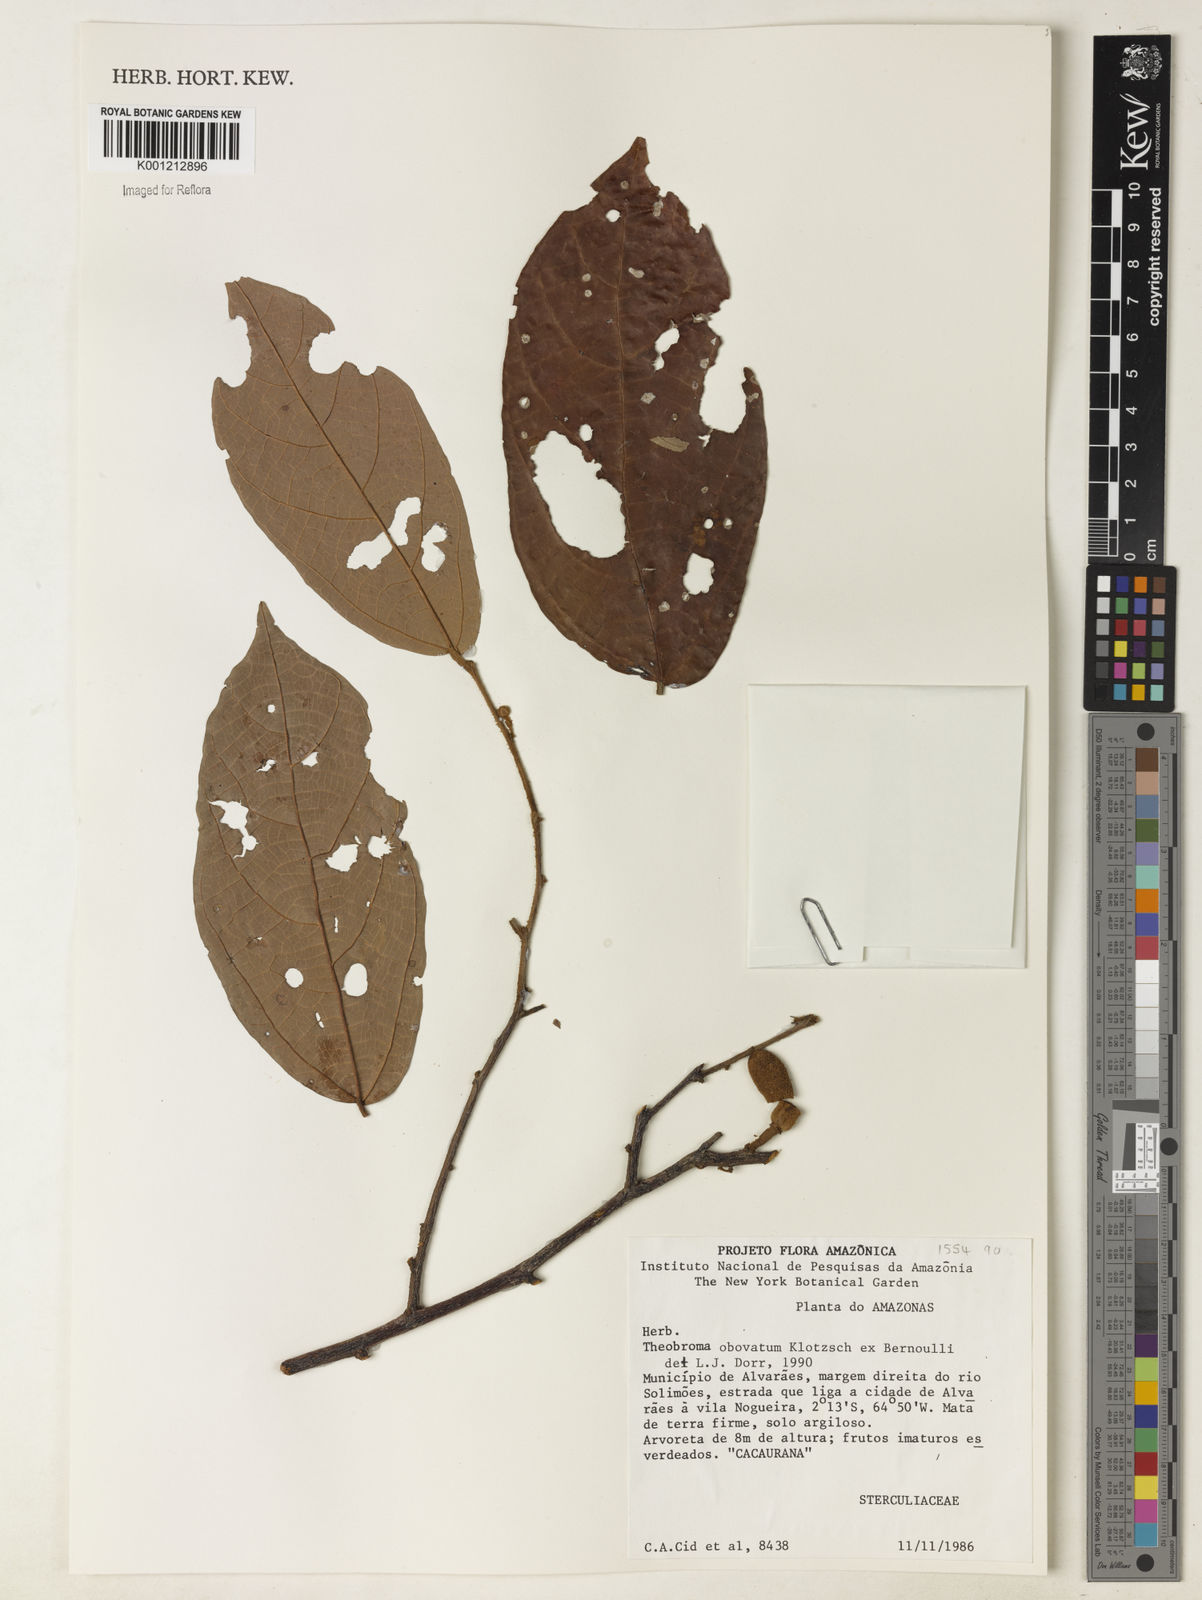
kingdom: Plantae
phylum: Tracheophyta
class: Magnoliopsida
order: Malvales
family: Malvaceae
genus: Theobroma
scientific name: Theobroma obovatum
